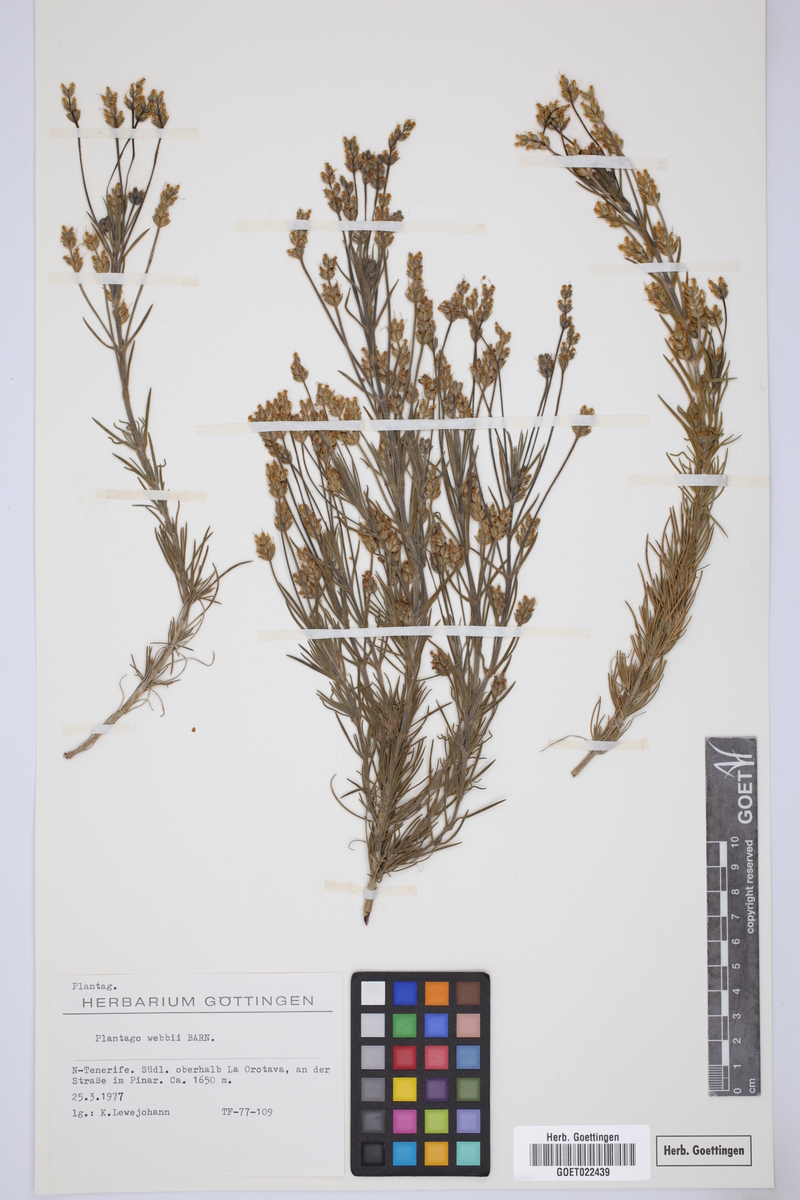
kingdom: Plantae
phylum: Tracheophyta
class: Magnoliopsida
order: Lamiales
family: Plantaginaceae
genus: Plantago
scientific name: Plantago webbii
